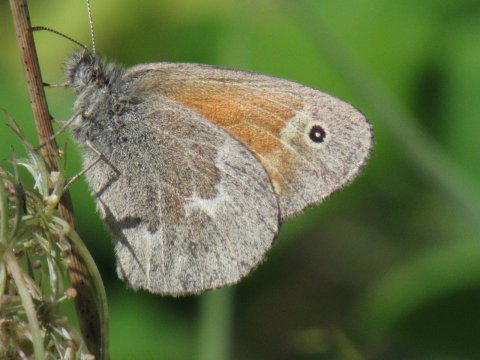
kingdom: Animalia
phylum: Arthropoda
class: Insecta
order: Lepidoptera
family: Nymphalidae
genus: Coenonympha
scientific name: Coenonympha tullia
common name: Large Heath
